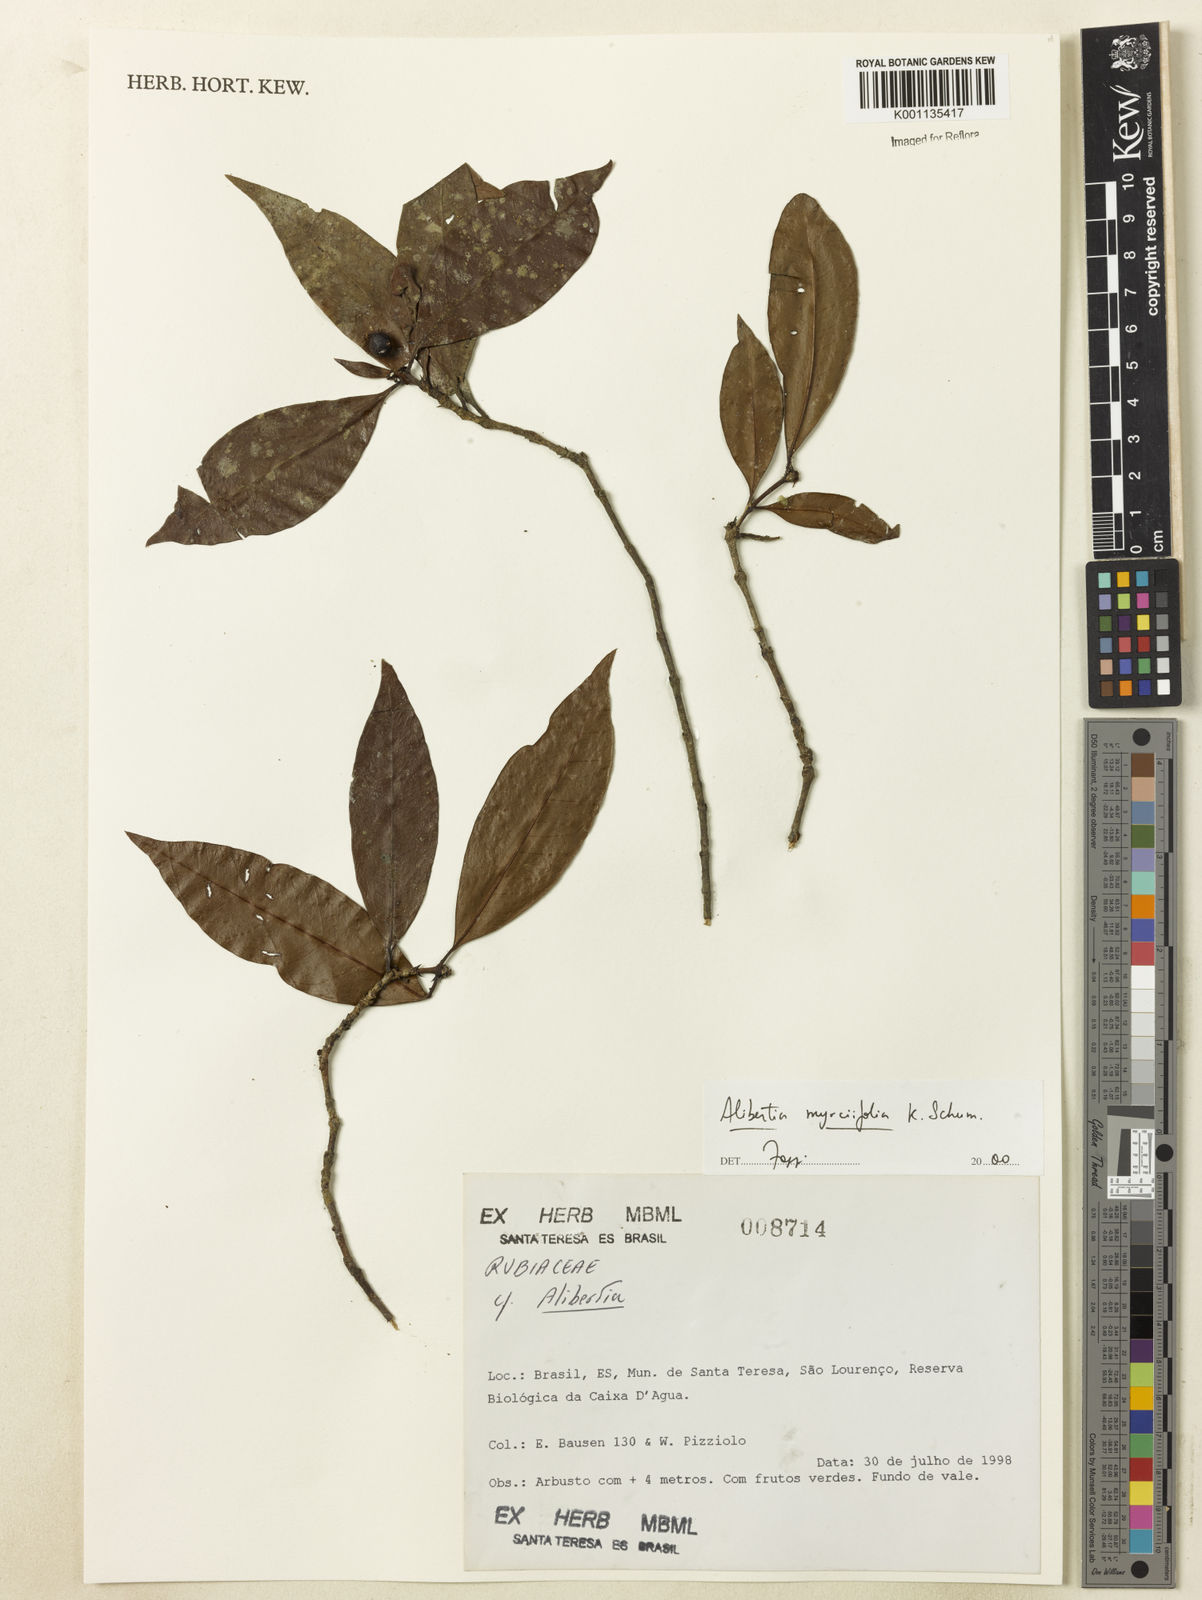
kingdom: Plantae
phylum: Tracheophyta
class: Magnoliopsida
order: Gentianales
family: Rubiaceae
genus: Cordiera
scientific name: Cordiera myrciifolia
